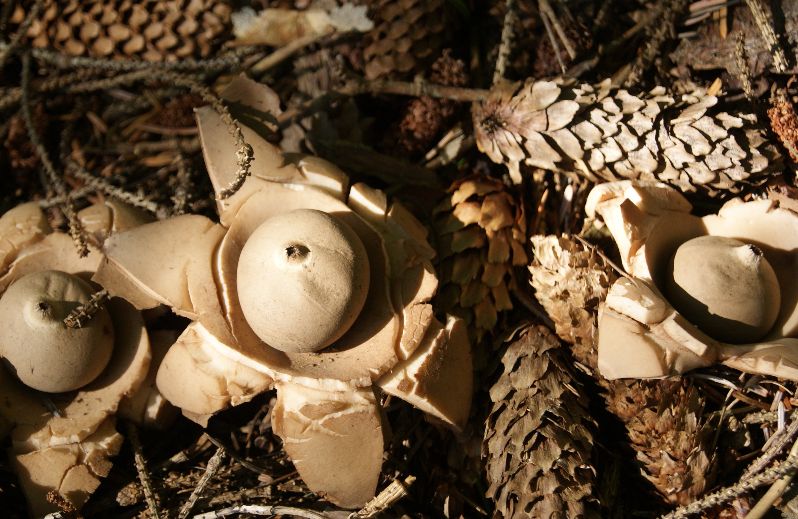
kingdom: Fungi
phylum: Basidiomycota
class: Agaricomycetes
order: Geastrales
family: Geastraceae
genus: Geastrum
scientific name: Geastrum michelianum
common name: kødet stjernebold
